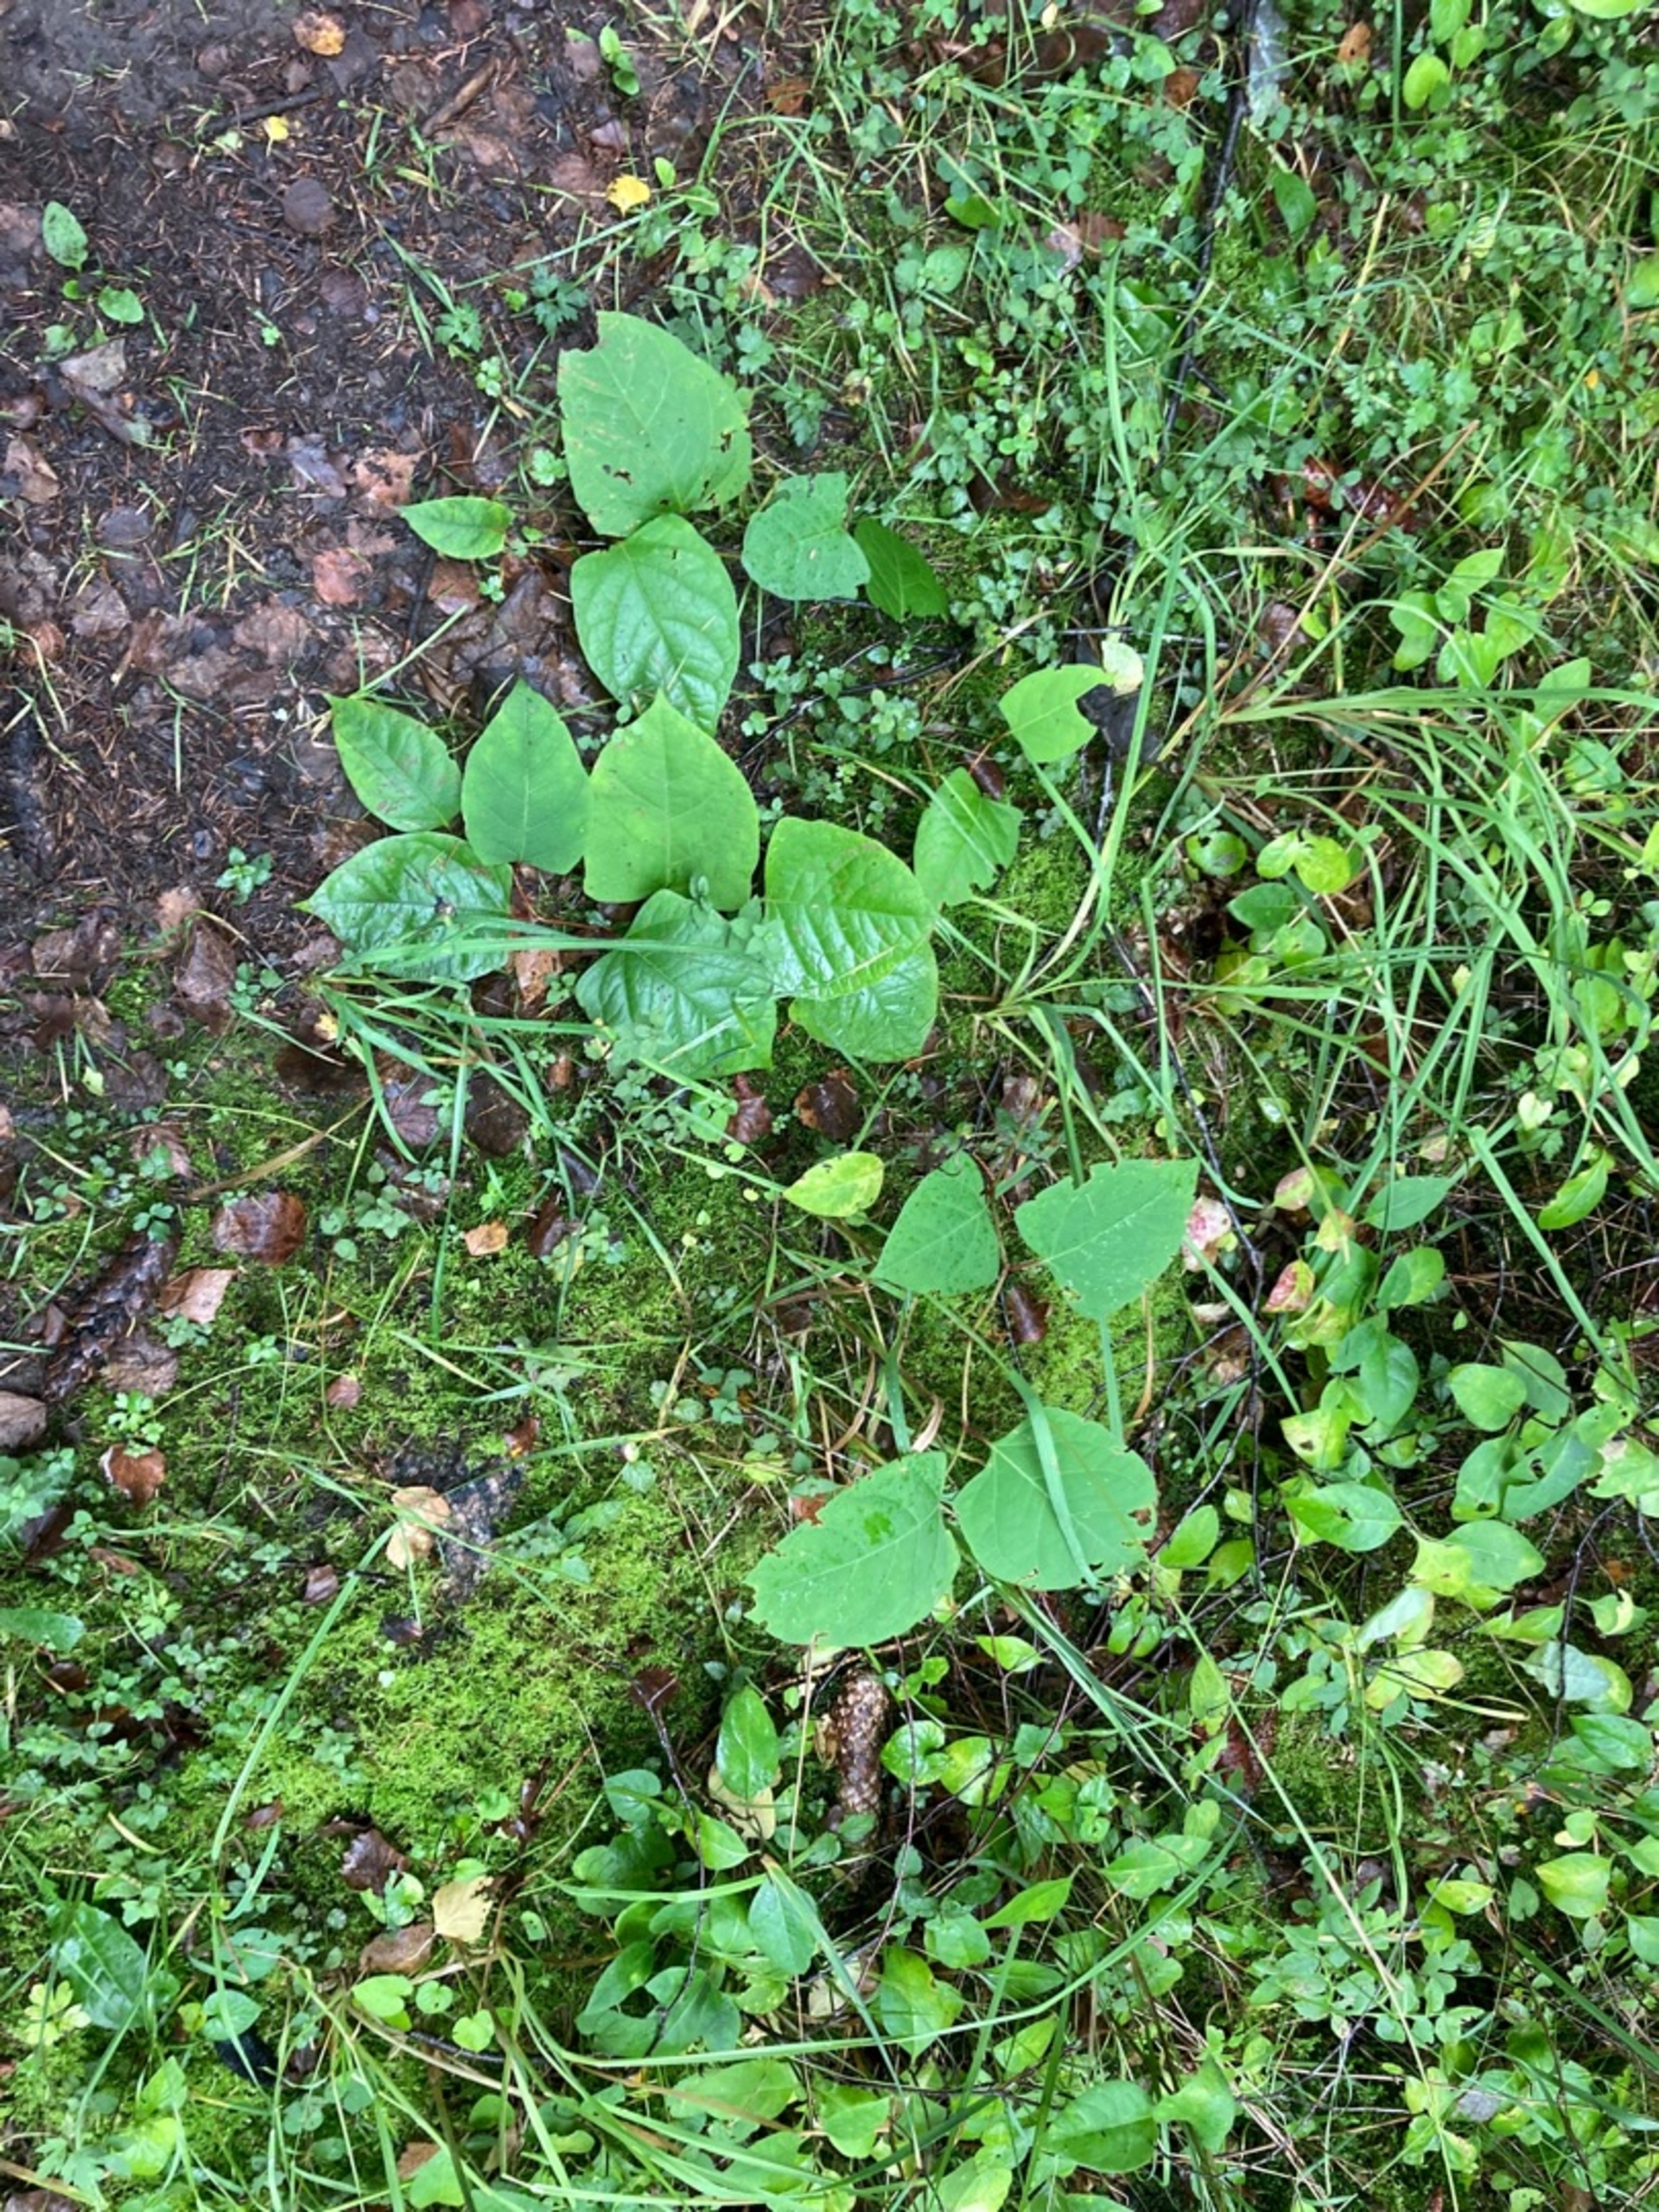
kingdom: Plantae
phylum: Tracheophyta
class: Magnoliopsida
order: Caryophyllales
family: Polygonaceae
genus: Reynoutria
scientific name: Reynoutria japonica
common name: Japan-pileurt
